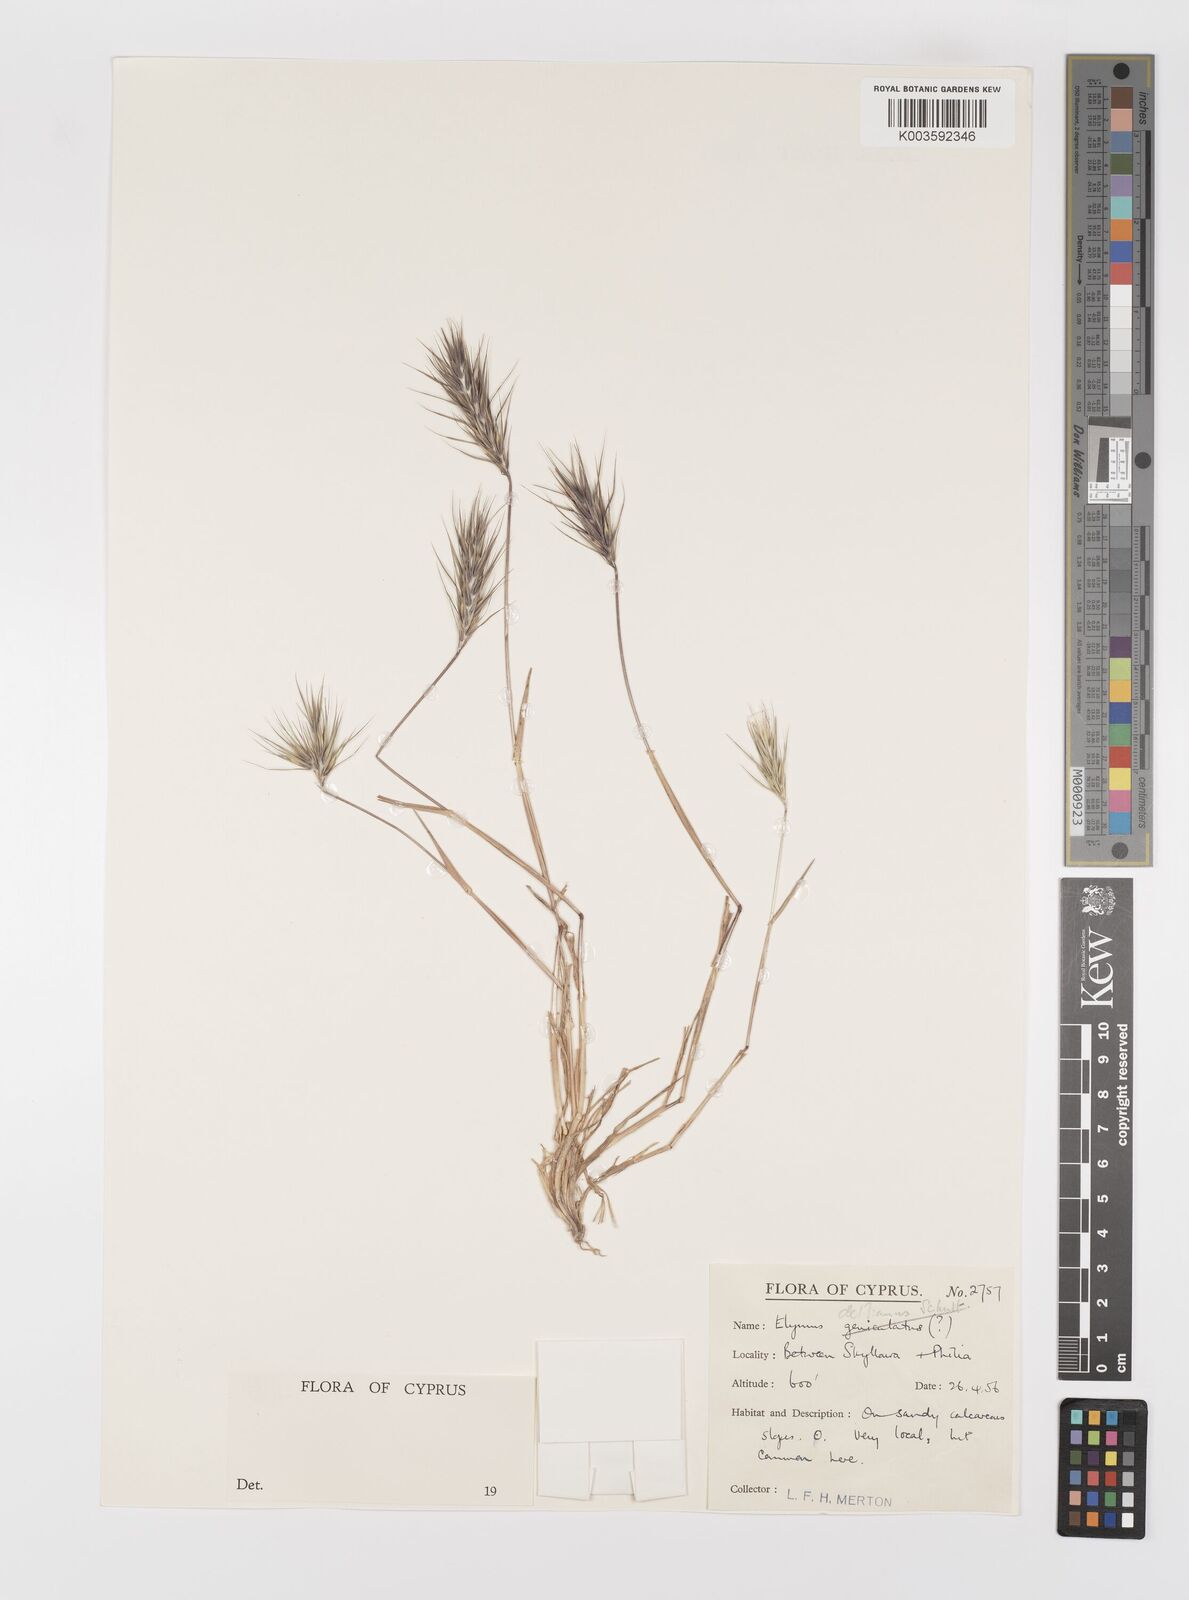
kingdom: Plantae
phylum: Tracheophyta
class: Liliopsida
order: Poales
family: Poaceae
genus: Crithopsis
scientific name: Crithopsis delileana
